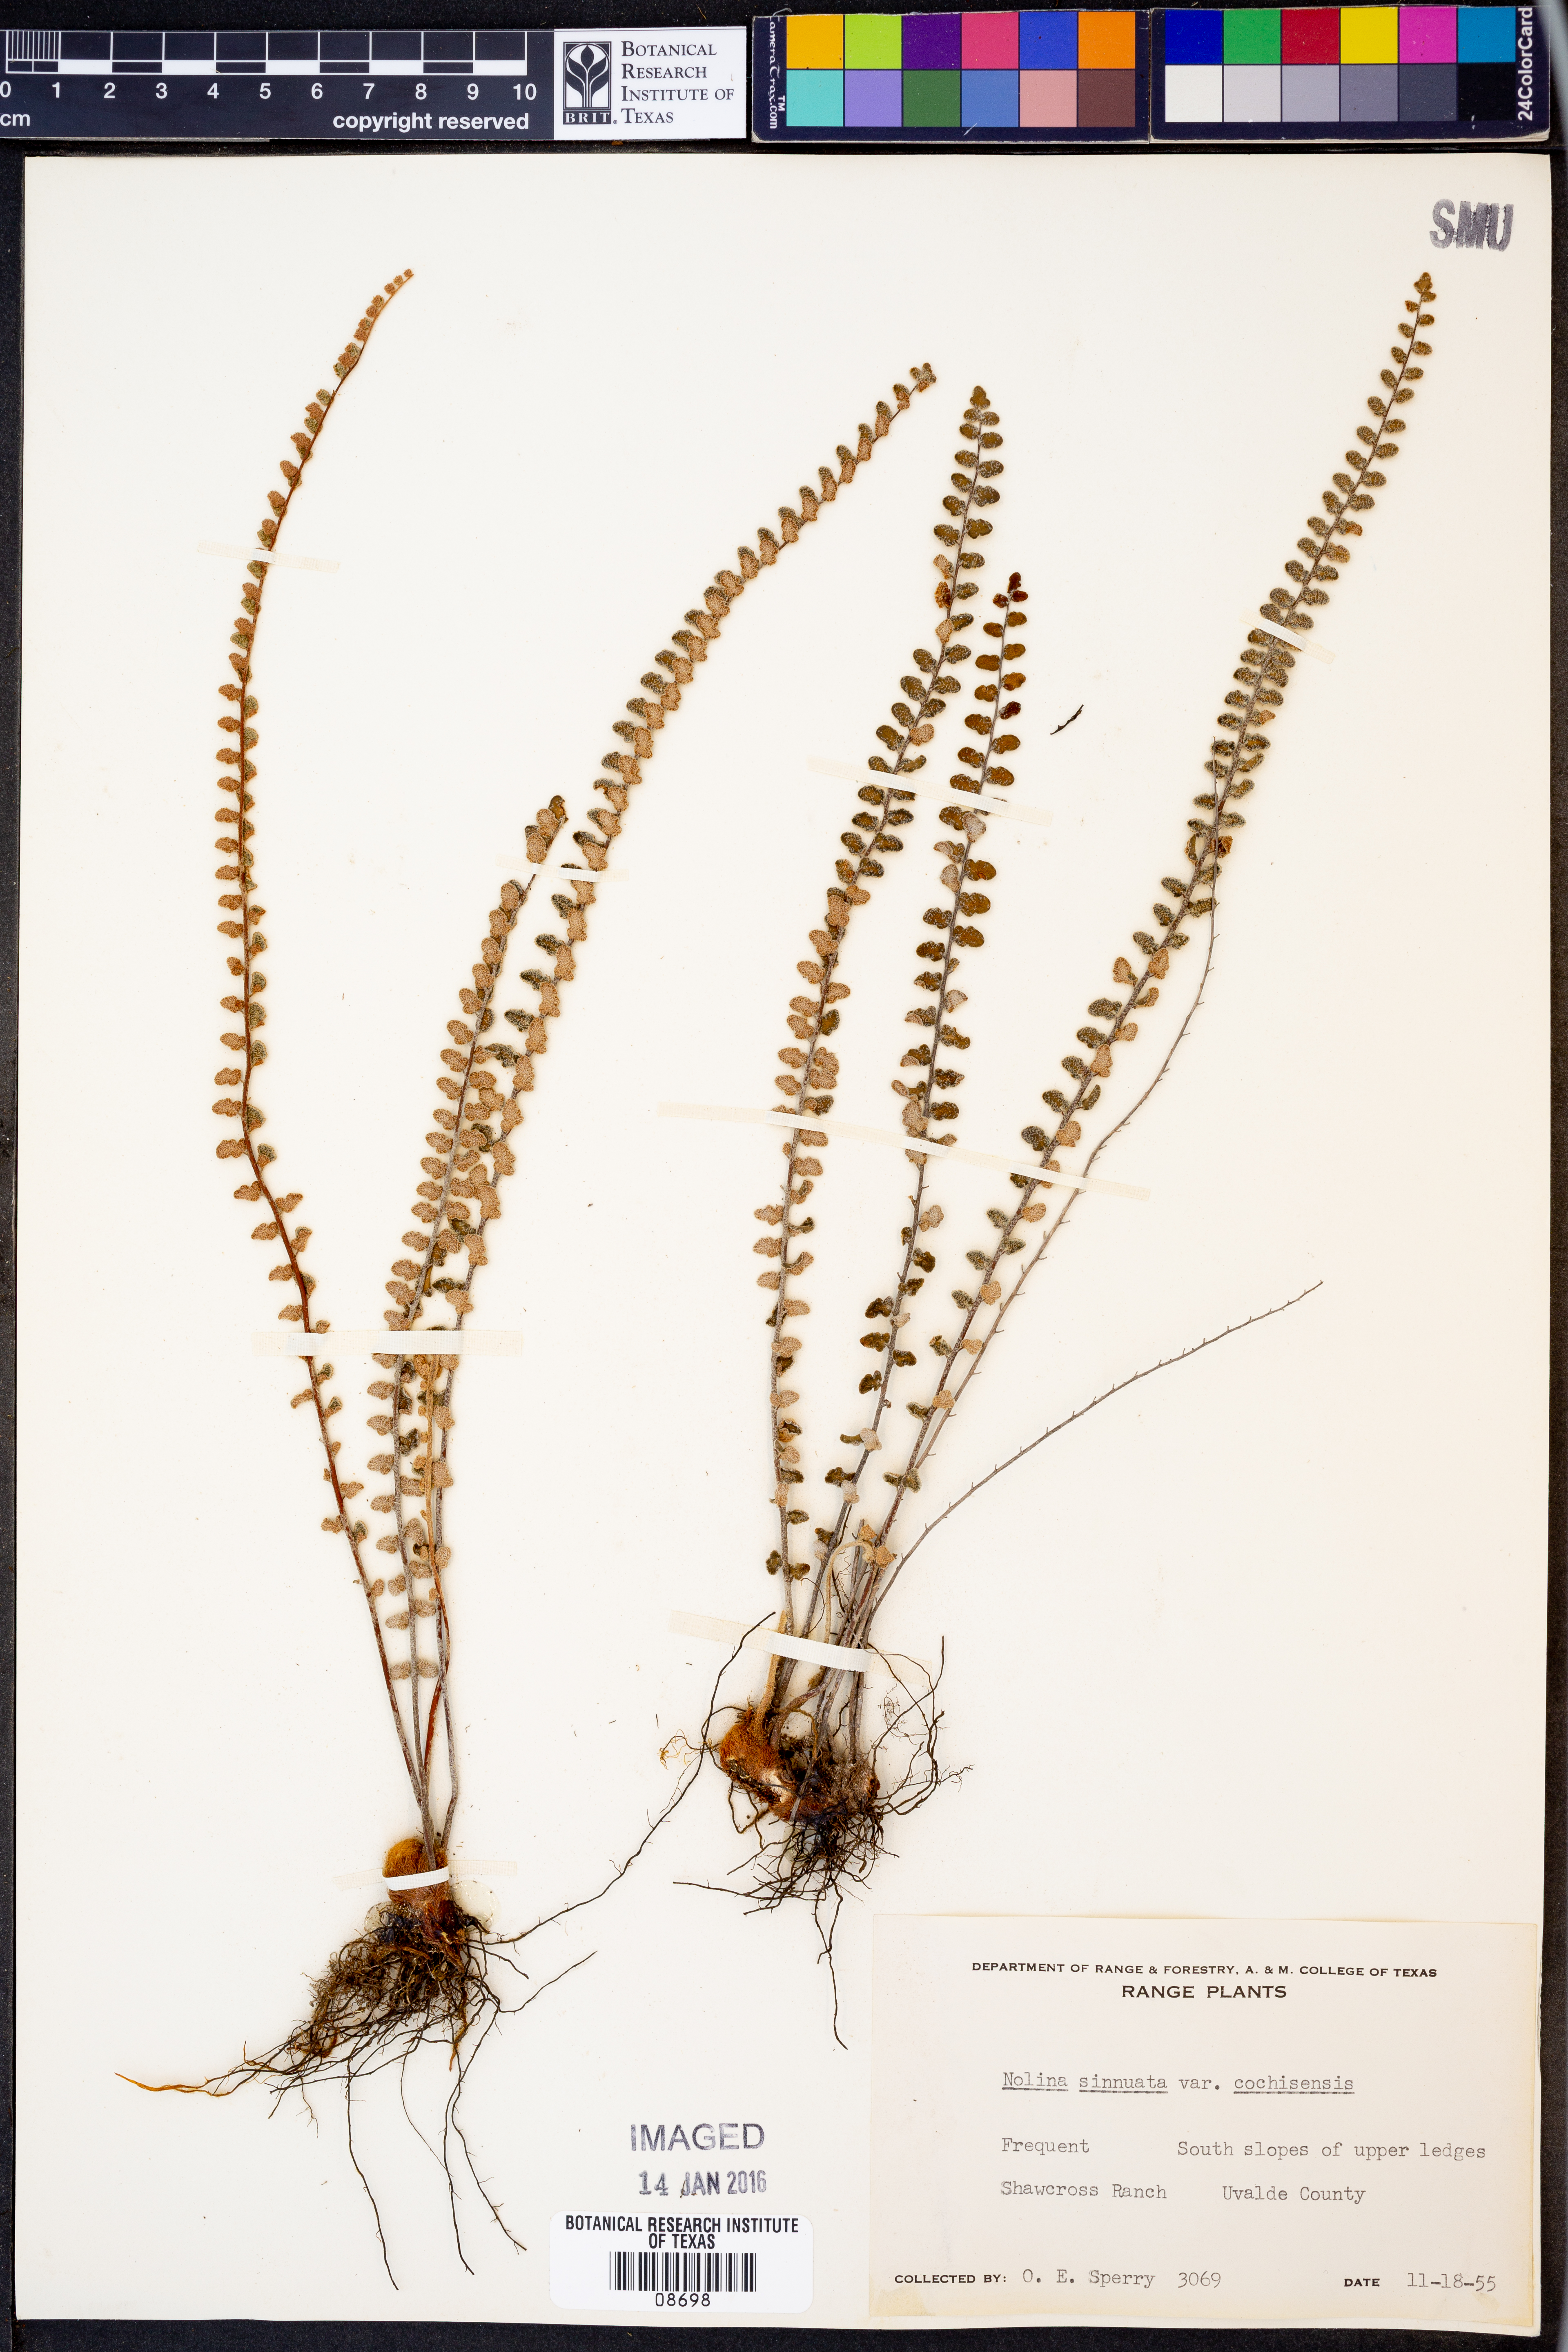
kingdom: Plantae
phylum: Tracheophyta
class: Polypodiopsida
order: Polypodiales
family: Pteridaceae
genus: Astrolepis
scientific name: Astrolepis cochisensis
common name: Scaly cloak fern
